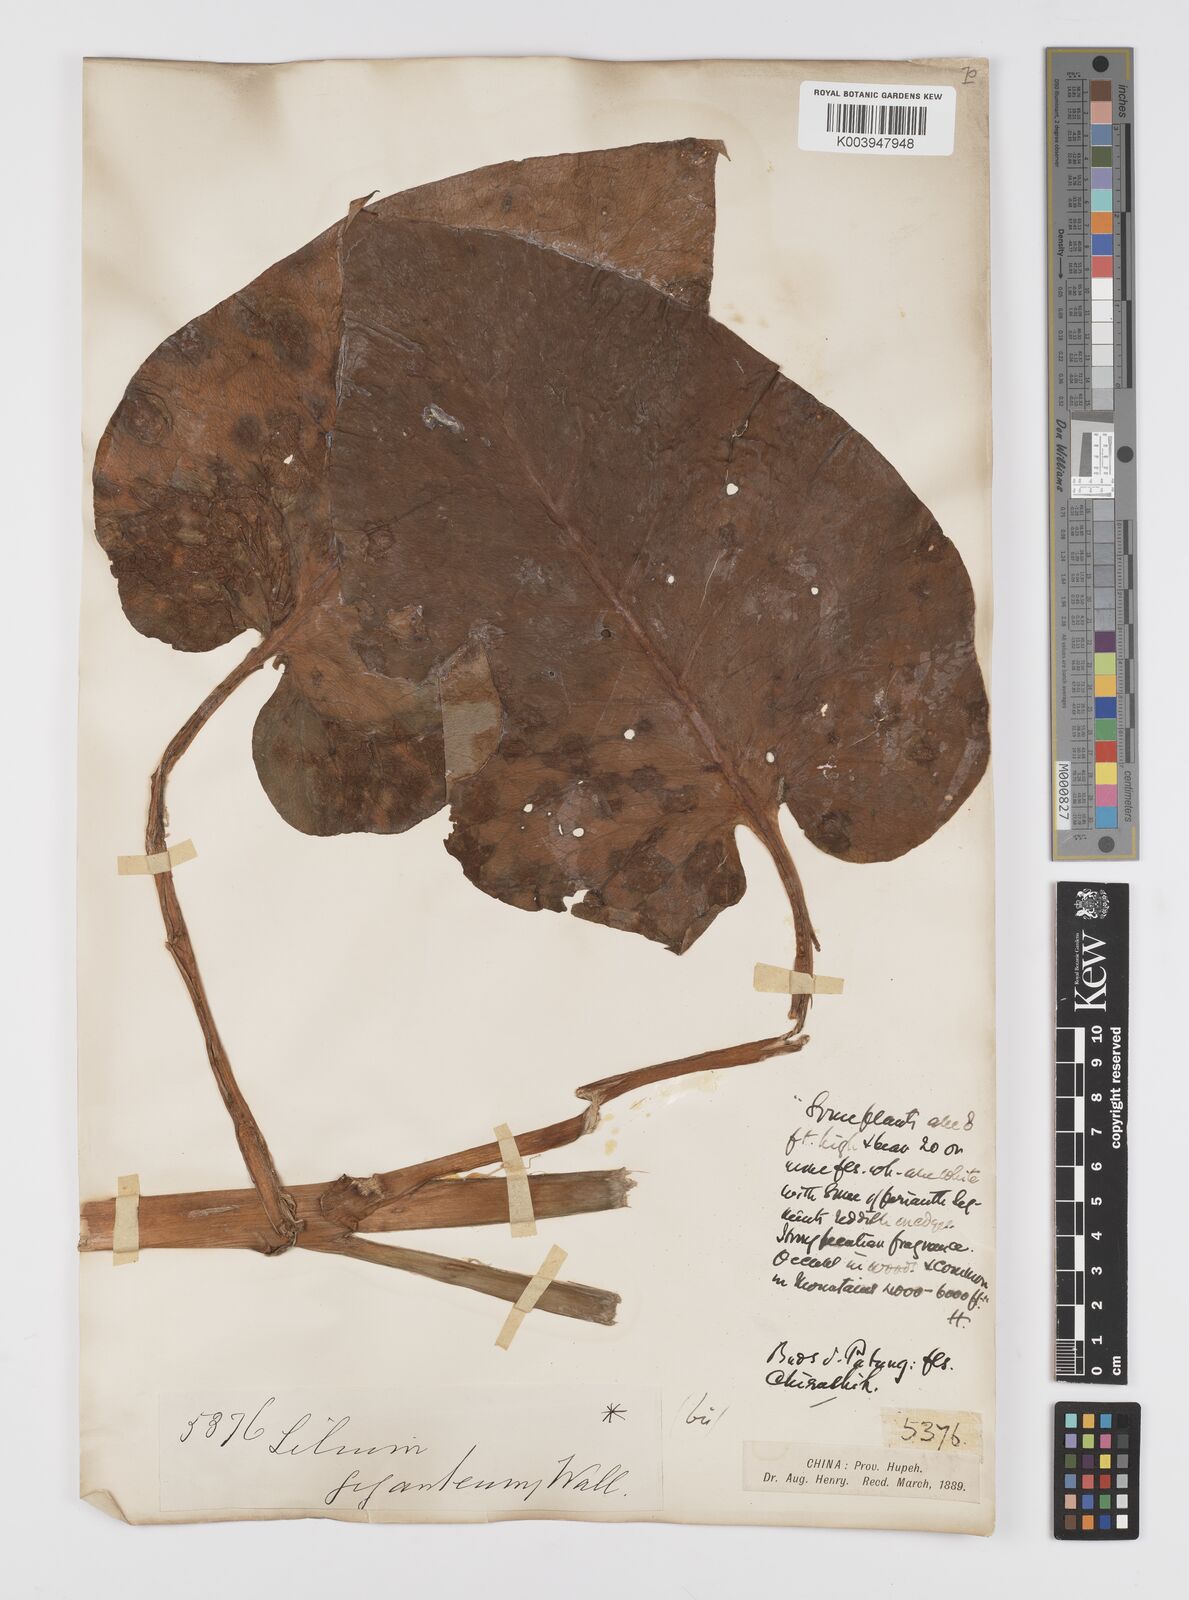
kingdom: Plantae
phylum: Tracheophyta
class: Liliopsida
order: Liliales
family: Liliaceae
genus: Cardiocrinum
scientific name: Cardiocrinum giganteum
